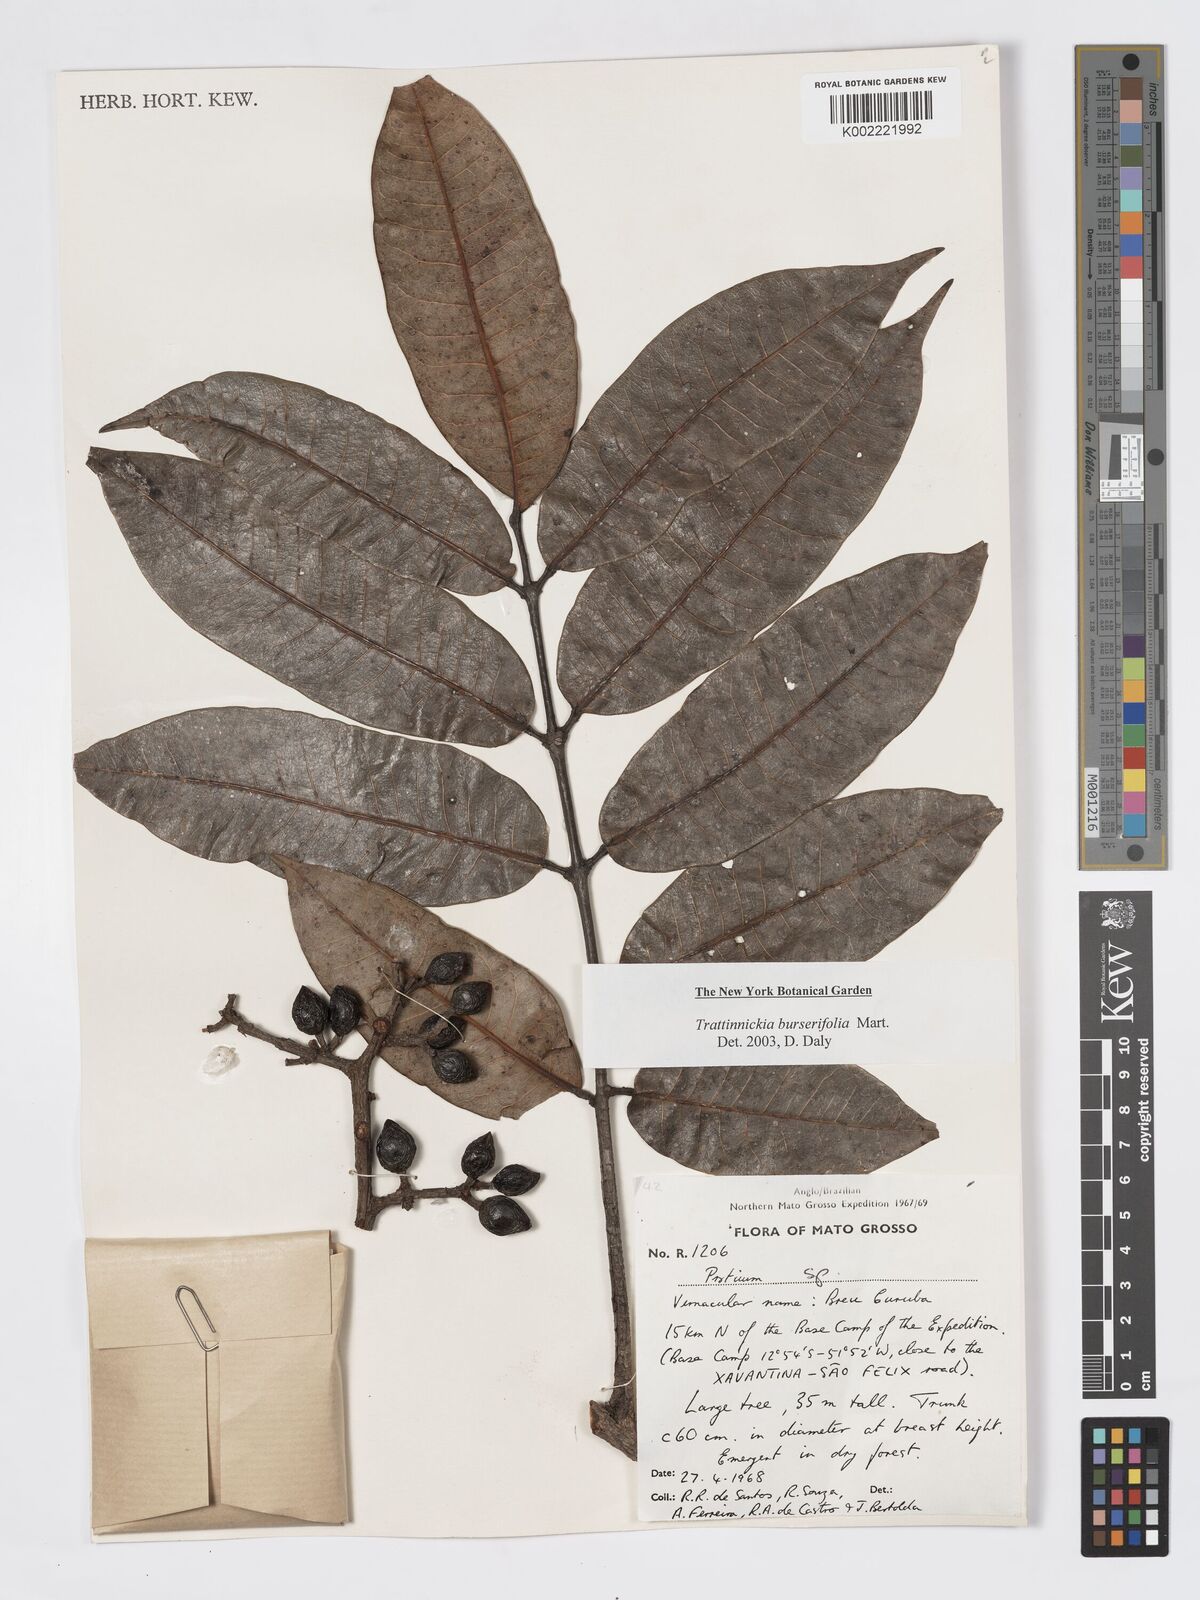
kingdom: Plantae
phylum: Tracheophyta
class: Magnoliopsida
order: Sapindales
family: Burseraceae
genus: Trattinnickia
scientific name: Trattinnickia burserifolia
